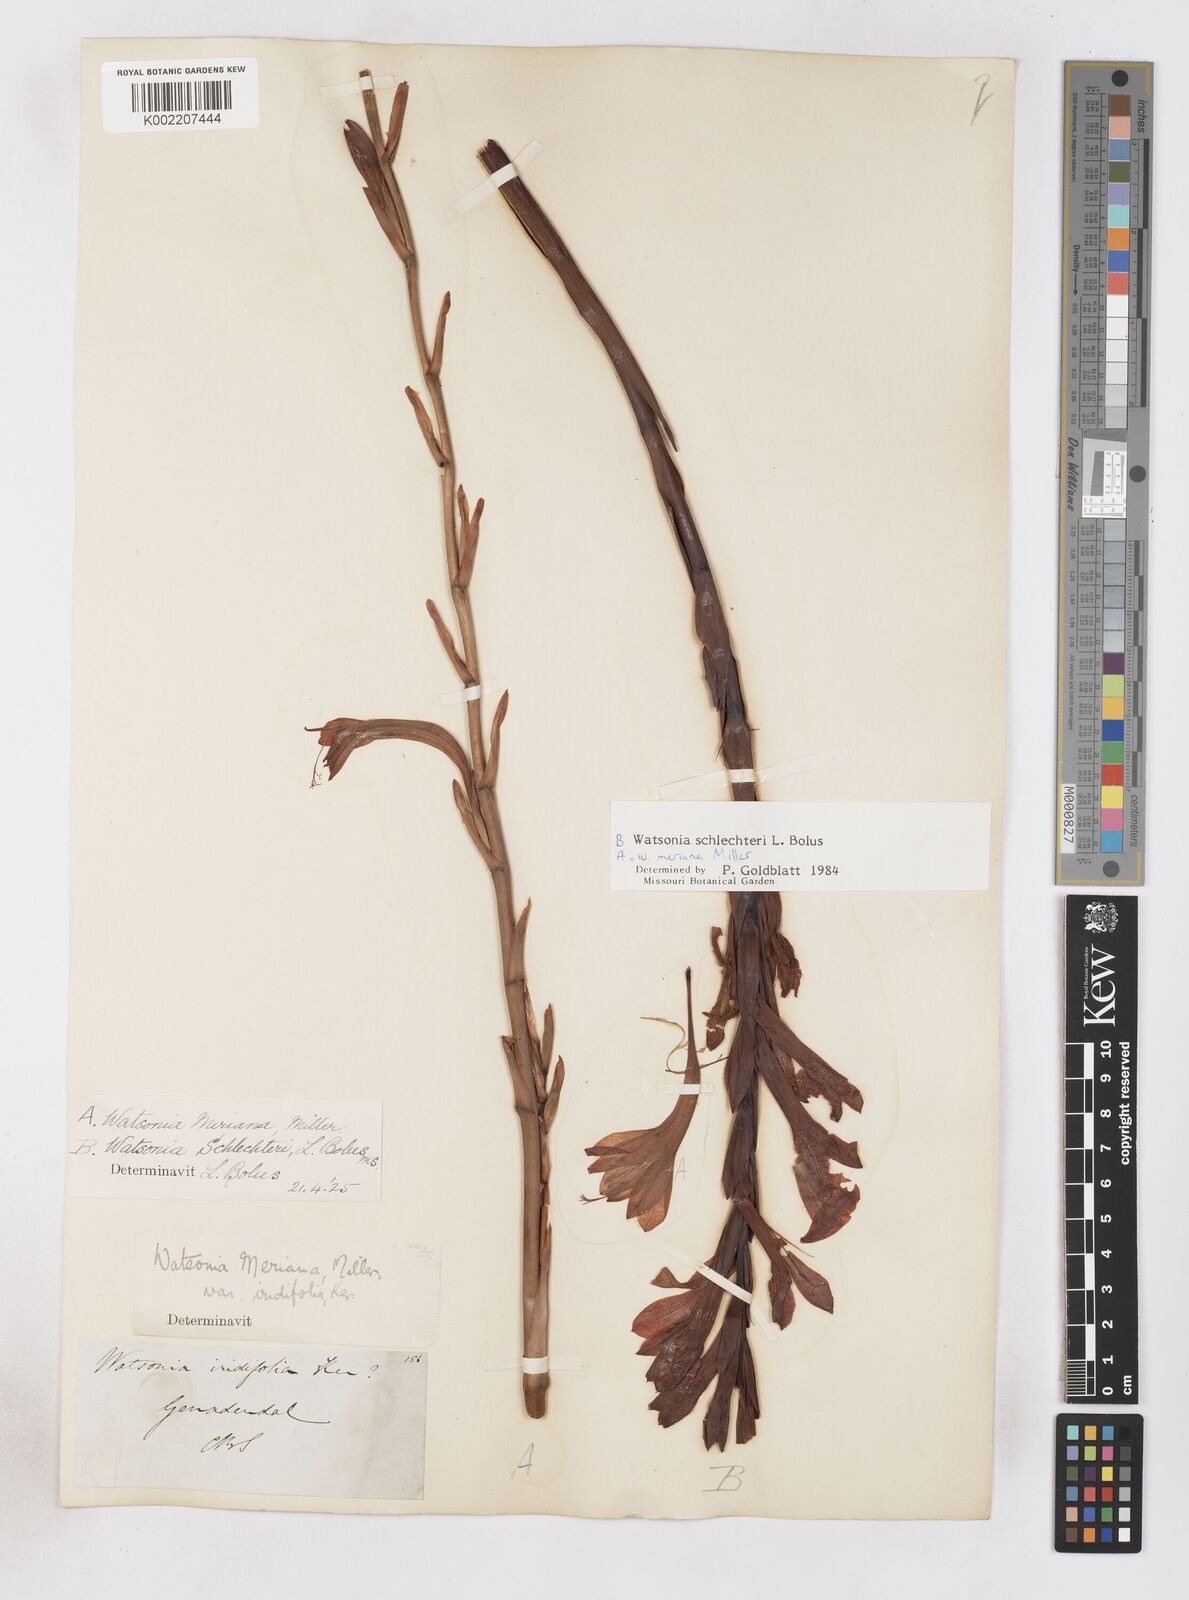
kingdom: Plantae
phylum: Tracheophyta
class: Liliopsida
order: Asparagales
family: Iridaceae
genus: Watsonia
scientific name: Watsonia schlechteri
